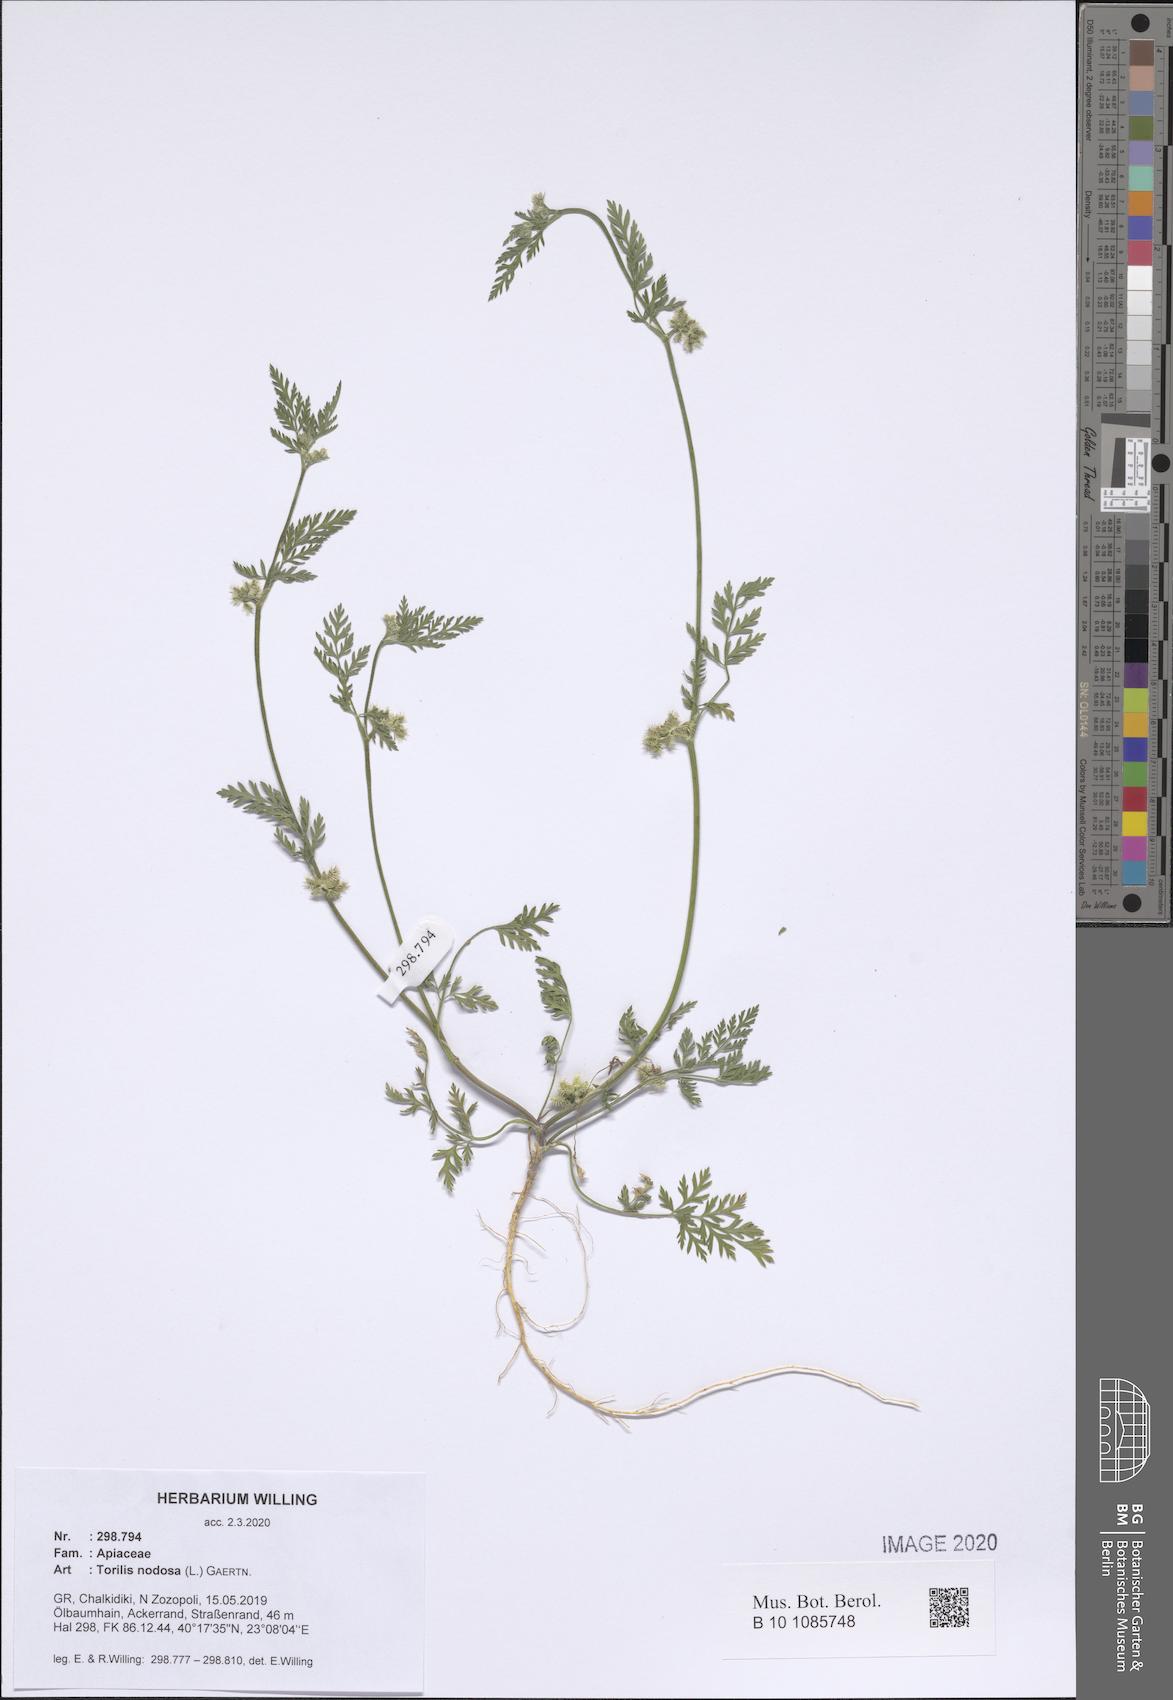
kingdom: Plantae
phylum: Tracheophyta
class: Magnoliopsida
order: Apiales
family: Apiaceae
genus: Torilis
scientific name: Torilis nodosa
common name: Knotted hedge-parsley
